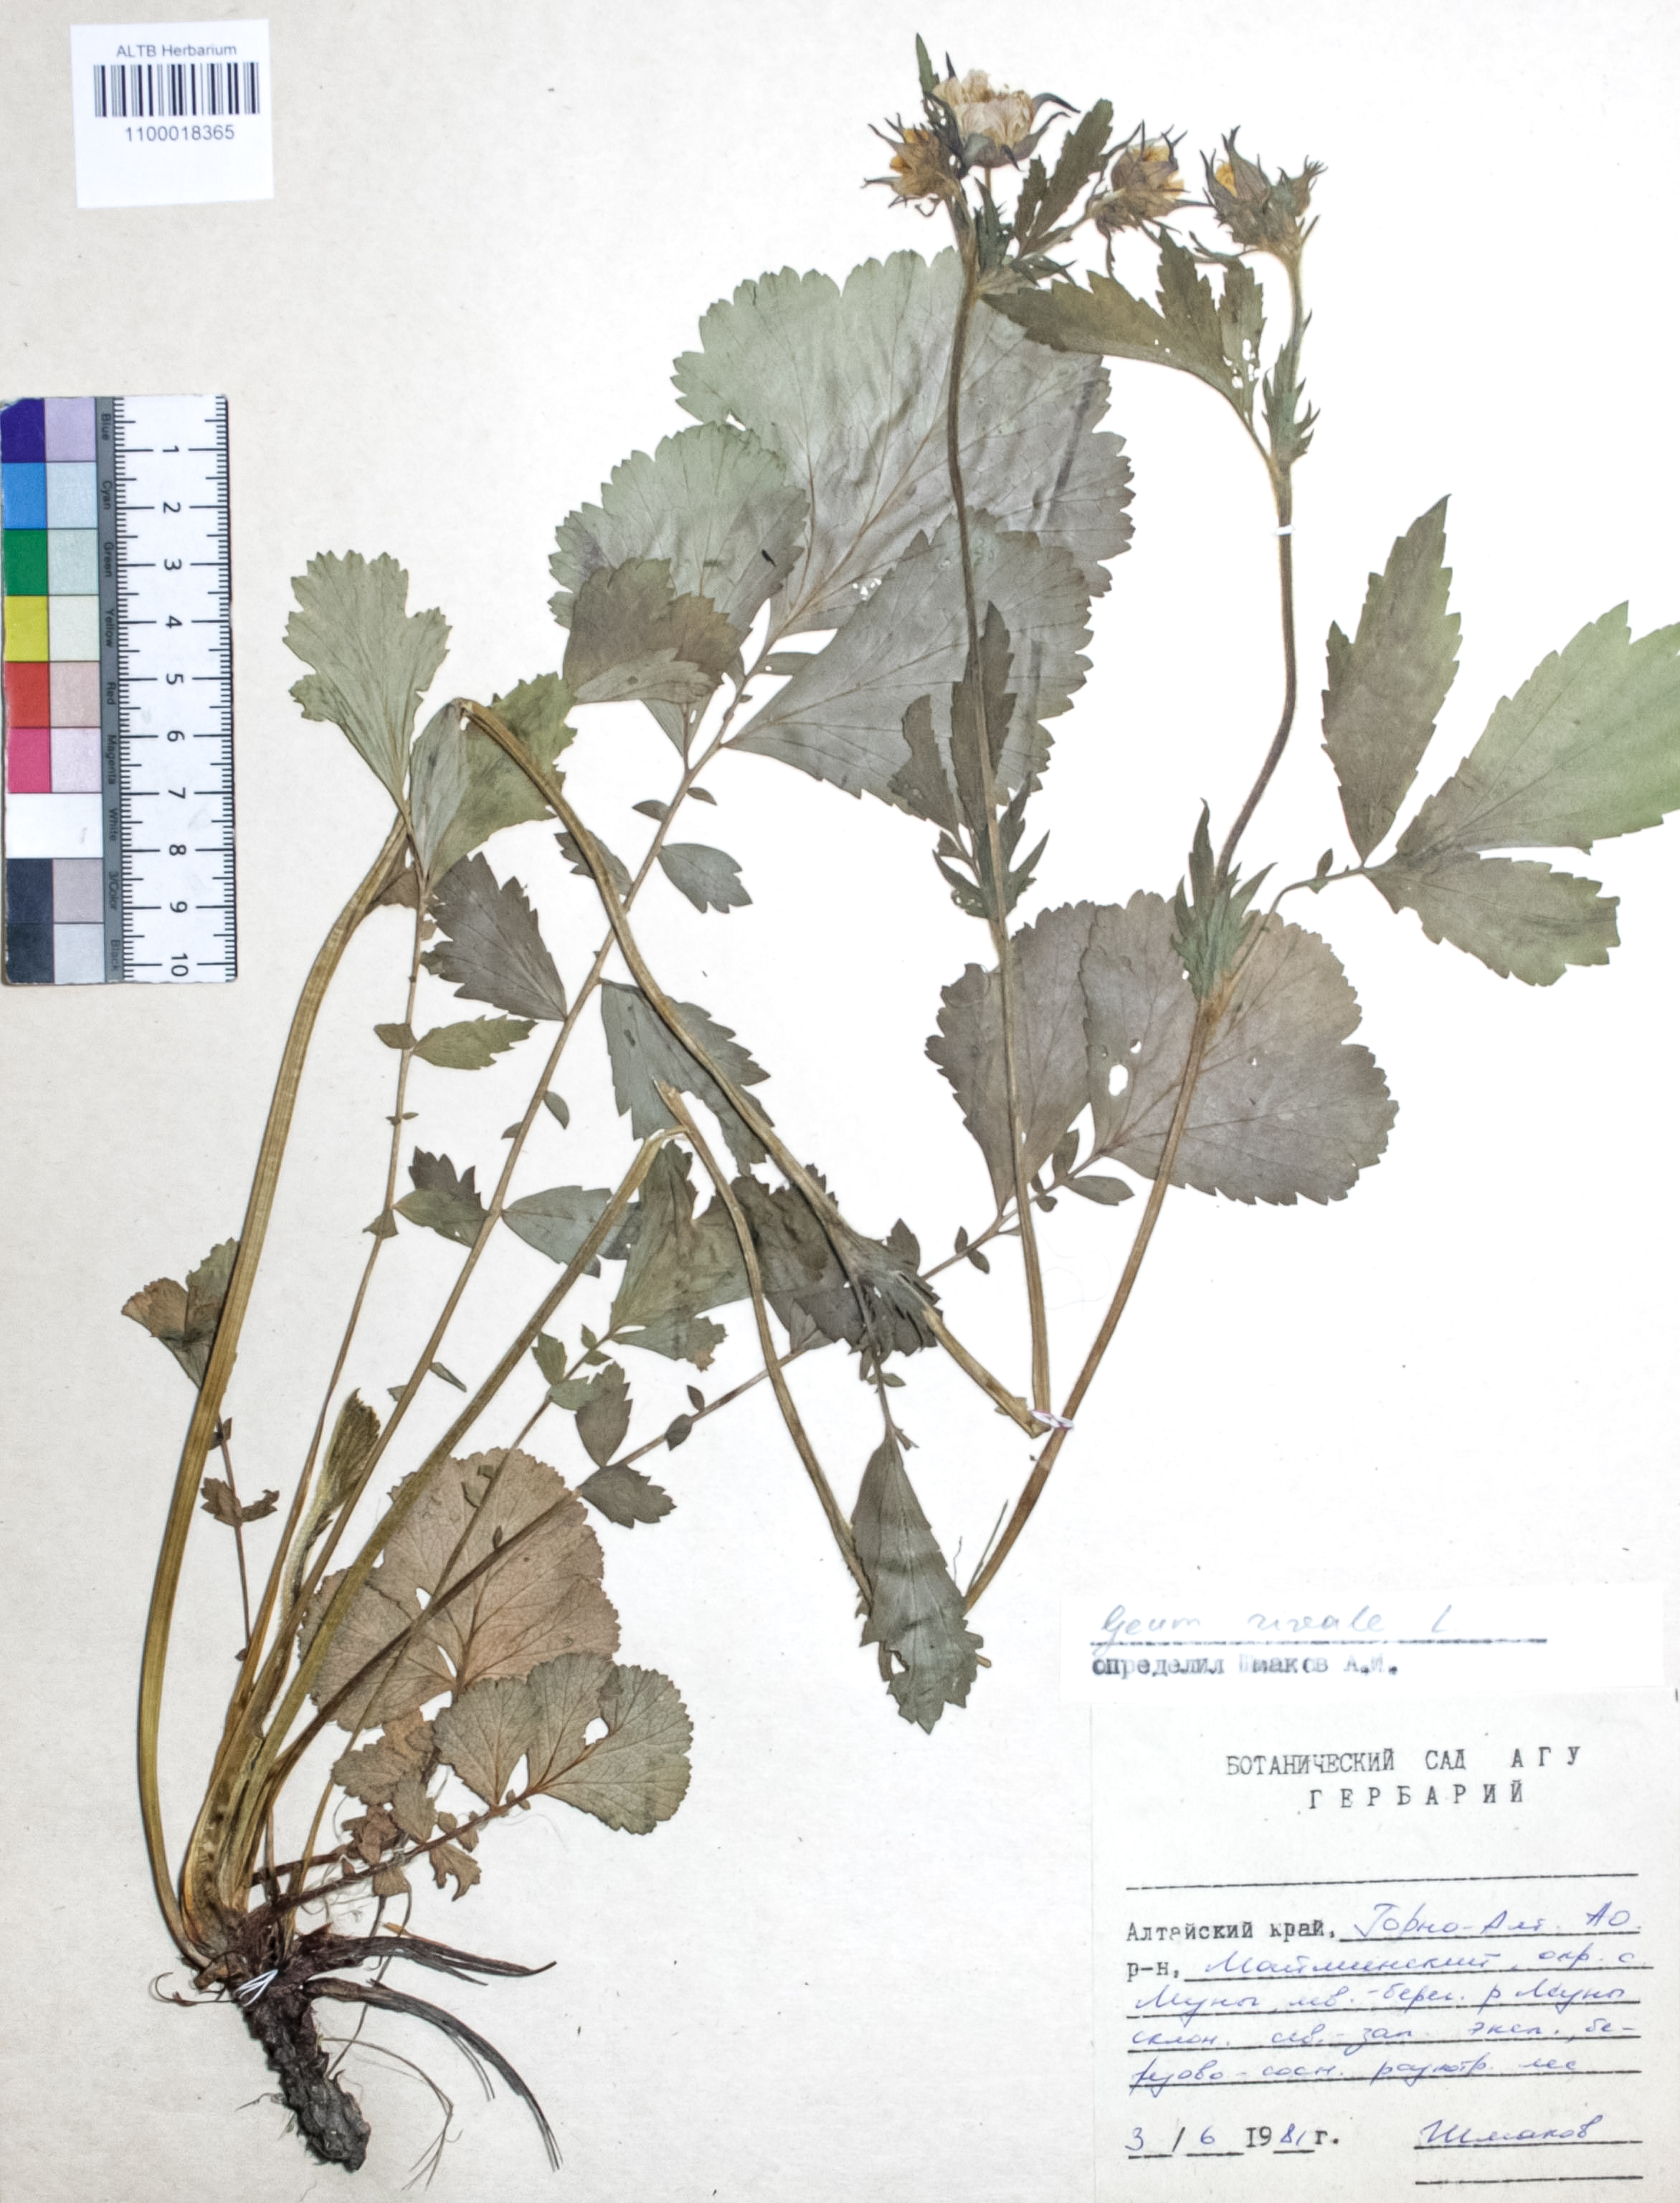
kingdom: Plantae
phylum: Tracheophyta
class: Magnoliopsida
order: Rosales
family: Rosaceae
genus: Geum
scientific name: Geum rivale
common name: Water avens
